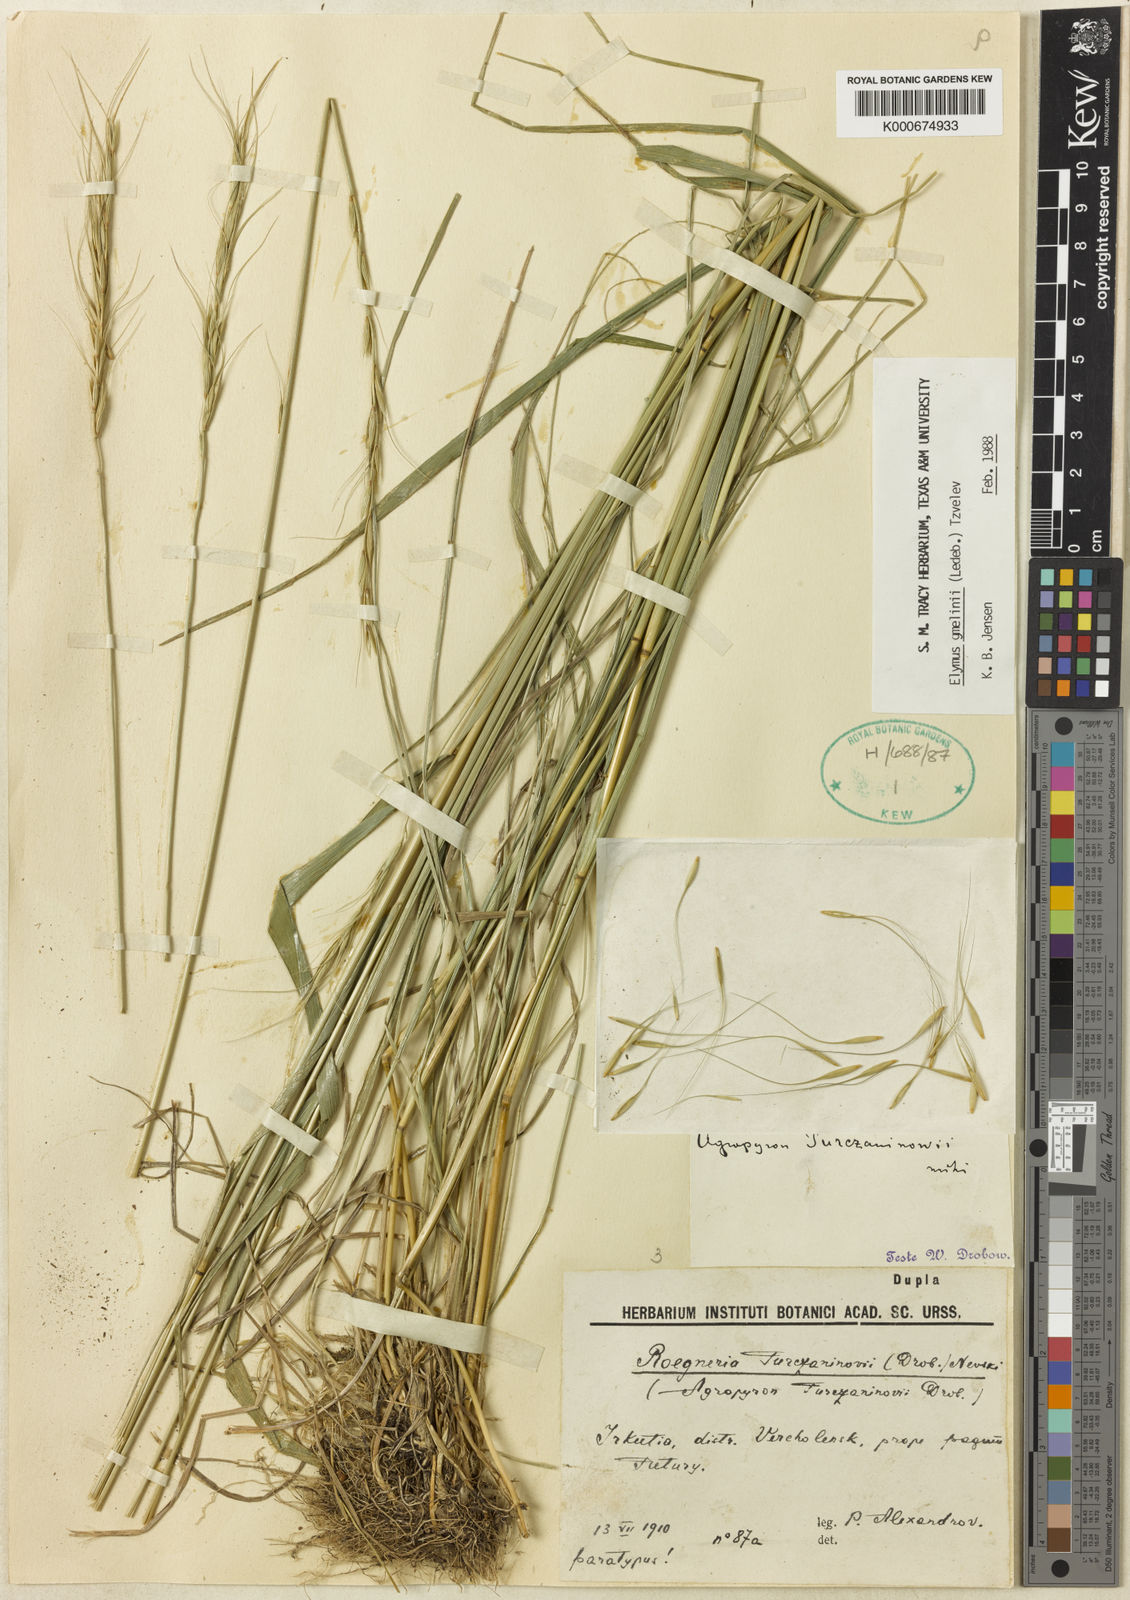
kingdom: Plantae
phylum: Tracheophyta
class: Liliopsida
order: Poales
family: Poaceae
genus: Elymus
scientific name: Elymus gmelinii
